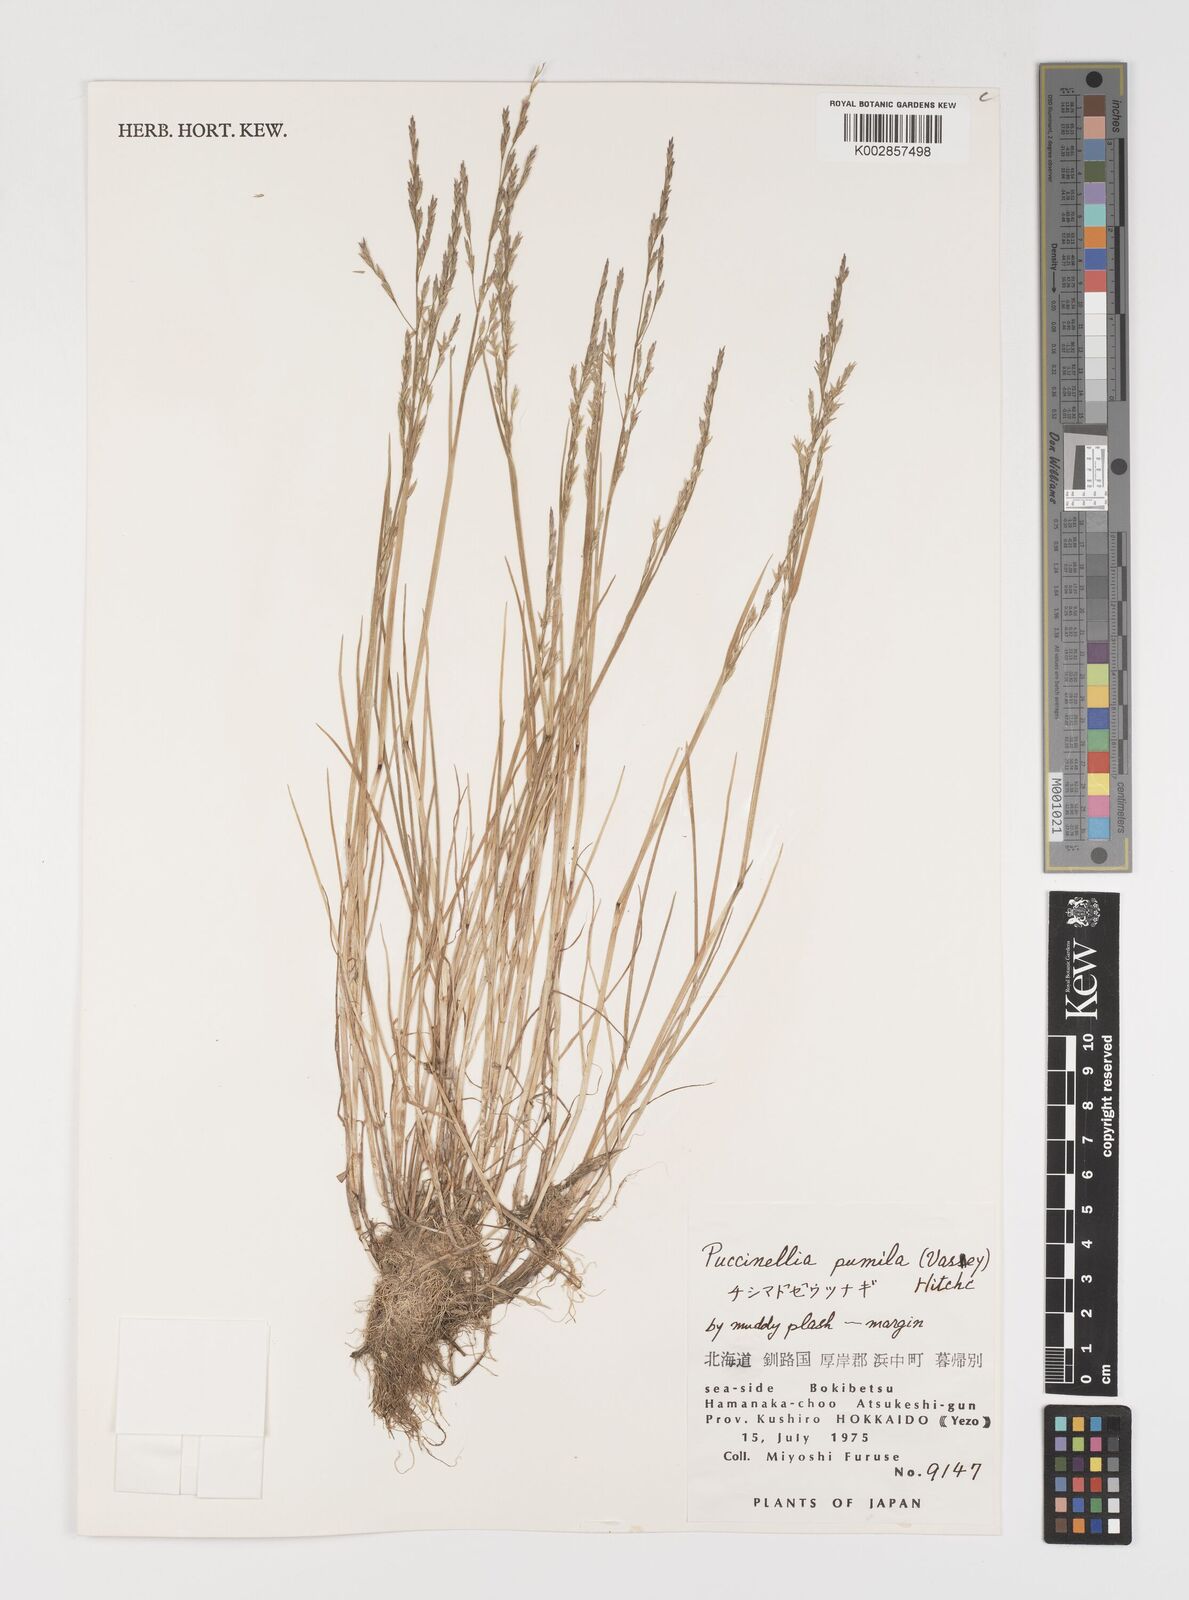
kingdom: Plantae
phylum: Tracheophyta
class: Liliopsida
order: Poales
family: Poaceae
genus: Puccinellia
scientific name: Puccinellia pumila
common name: Dwarf alkaligrass
